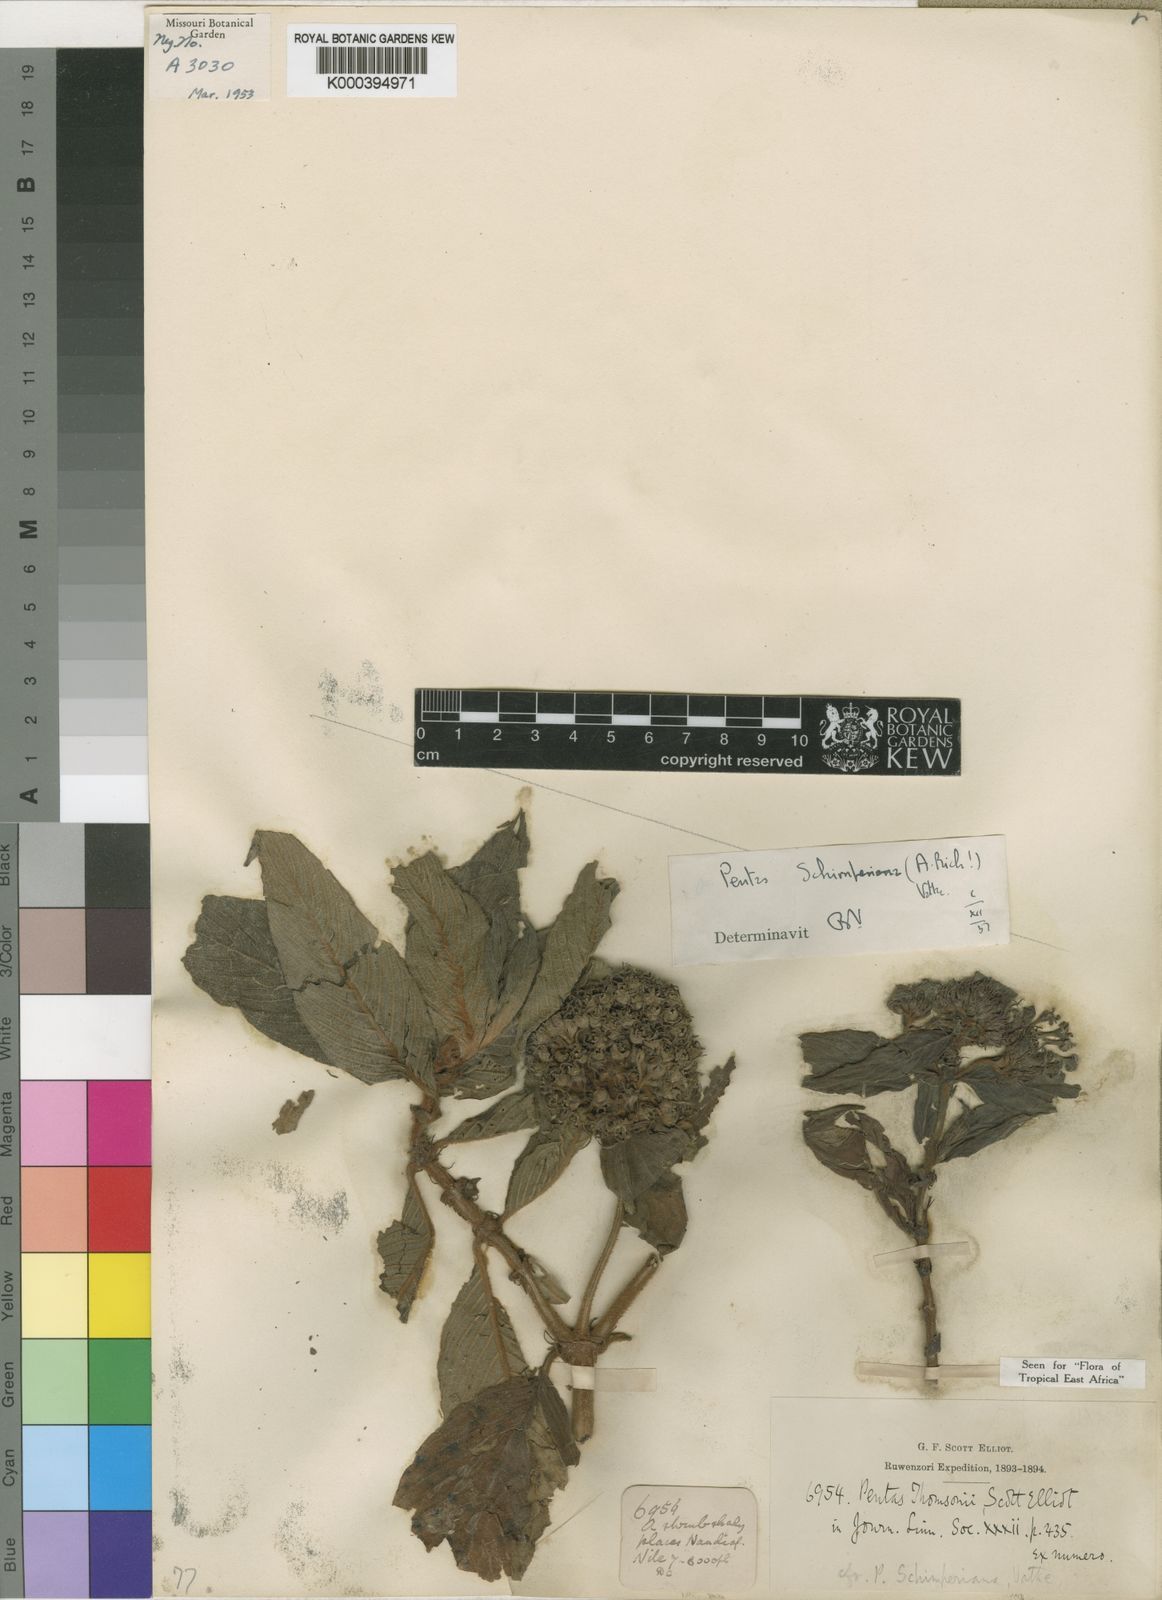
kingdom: Plantae
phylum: Tracheophyta
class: Magnoliopsida
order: Gentianales
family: Rubiaceae
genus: Phyllopentas
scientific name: Phyllopentas schimperi
